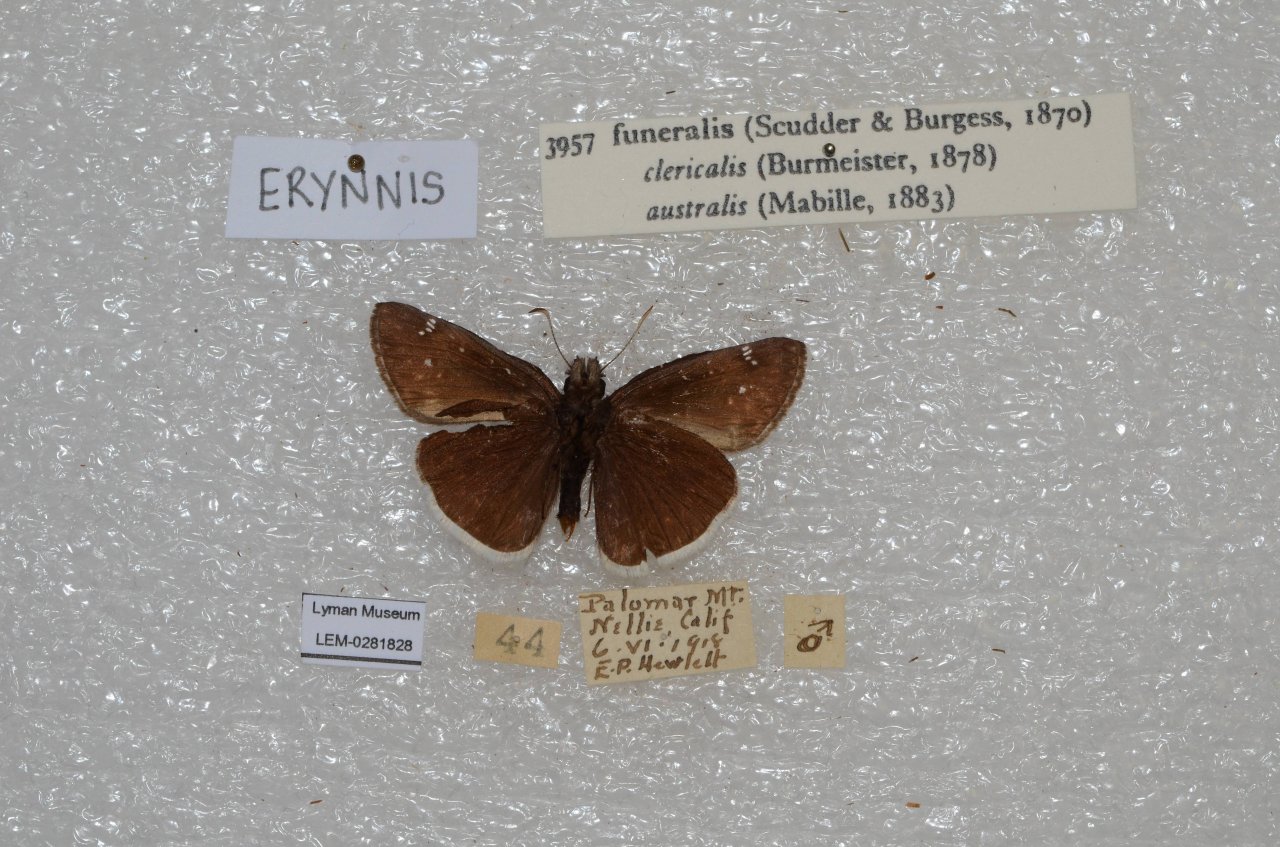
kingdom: Animalia
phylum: Arthropoda
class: Insecta
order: Lepidoptera
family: Hesperiidae
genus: Erynnis
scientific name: Erynnis funeralis
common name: Funereal Duskywing
